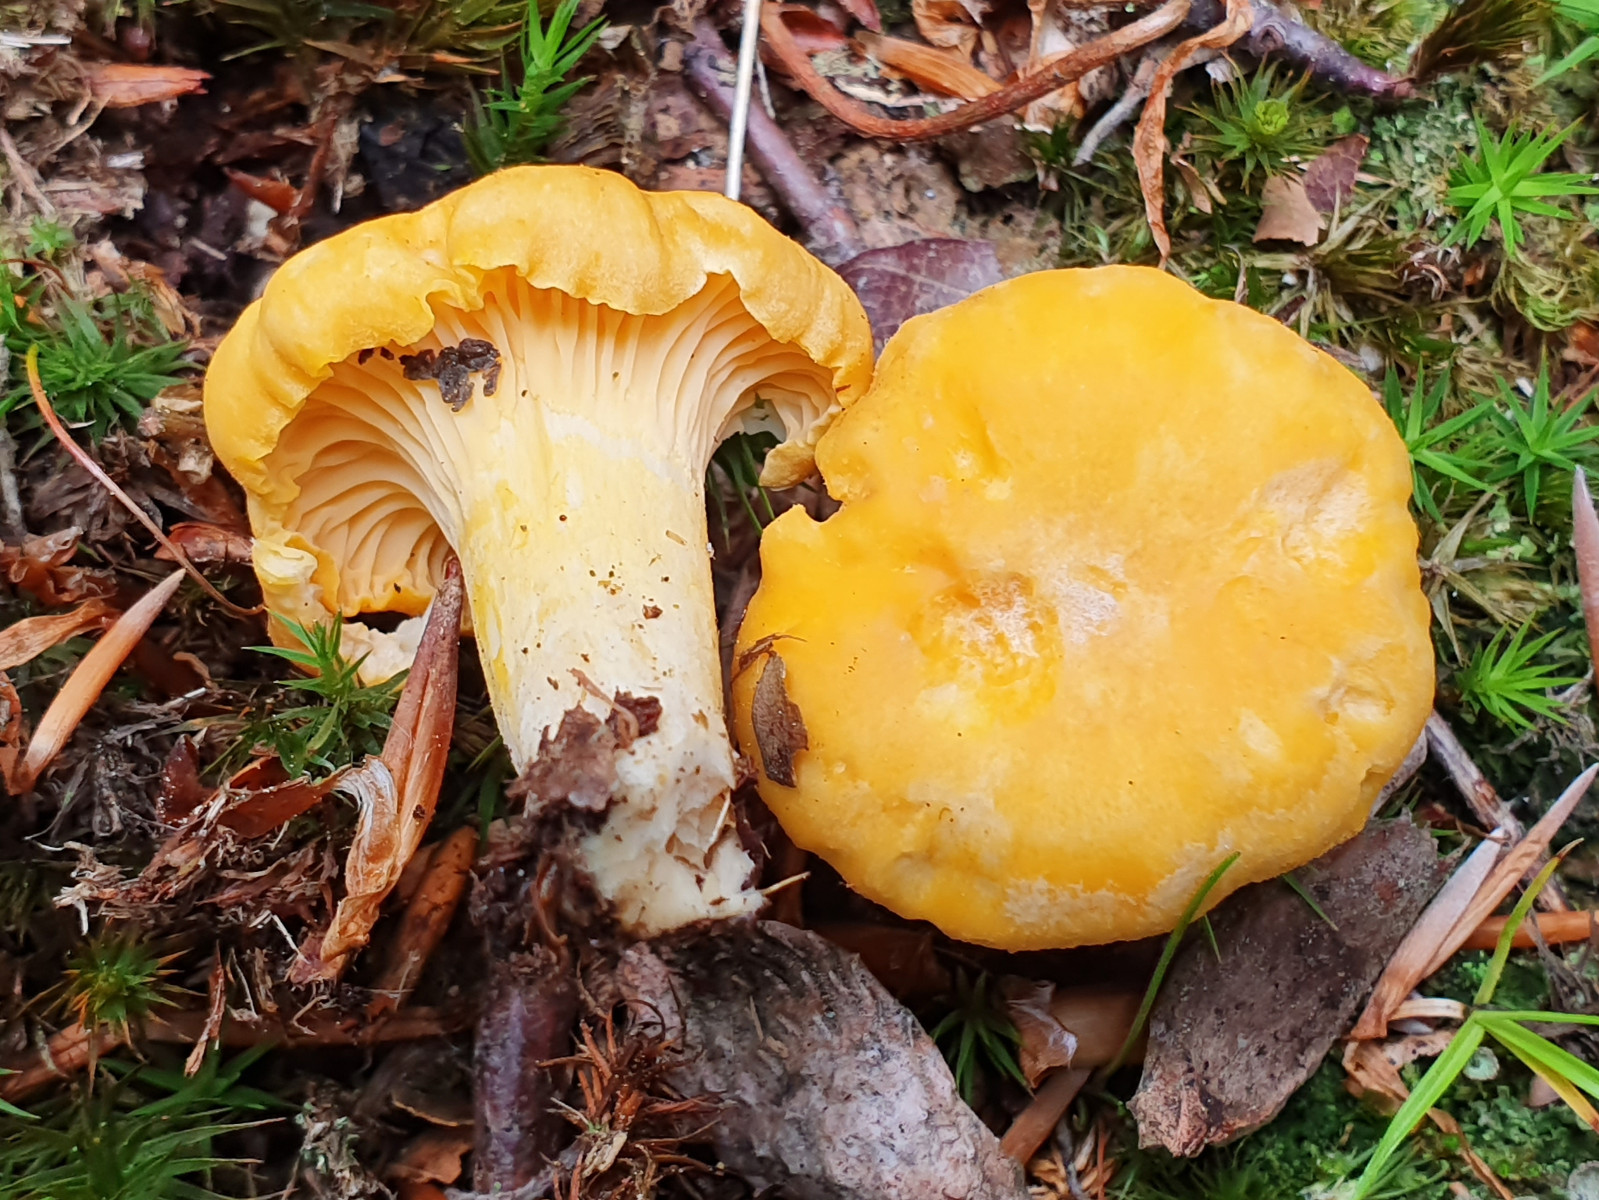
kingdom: Fungi
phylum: Basidiomycota
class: Agaricomycetes
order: Cantharellales
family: Hydnaceae
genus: Cantharellus
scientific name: Cantharellus cibarius
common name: almindelig kantarel
